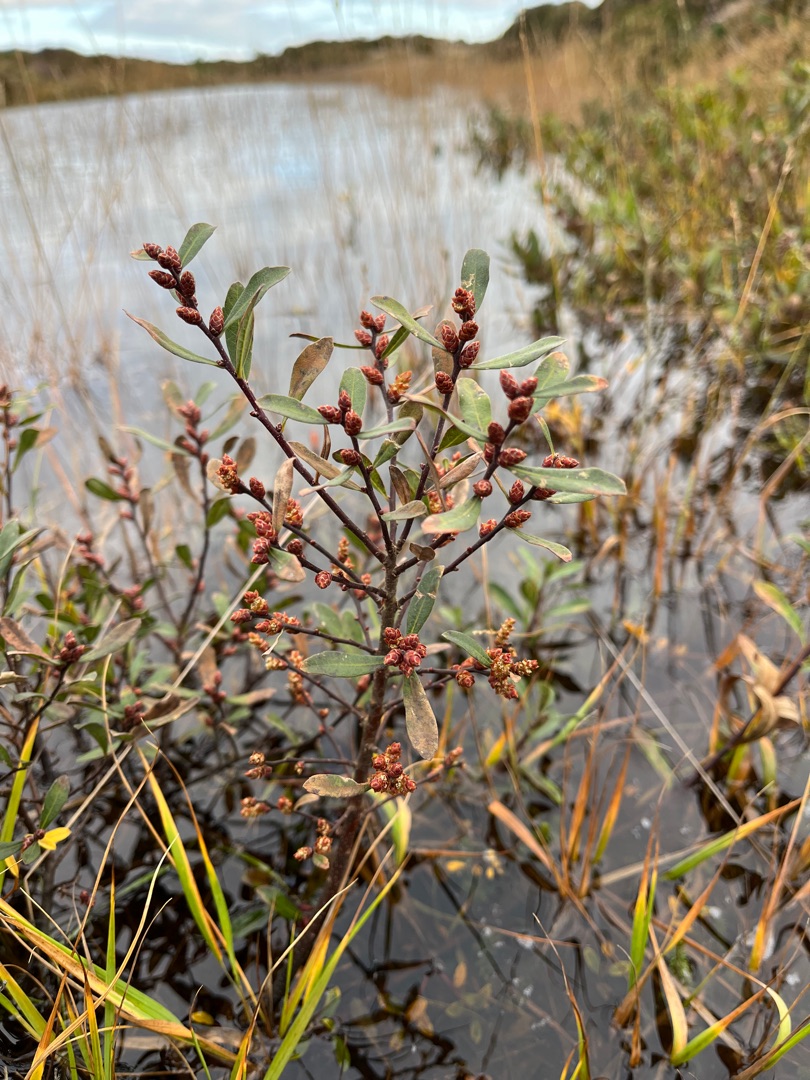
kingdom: Plantae
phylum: Tracheophyta
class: Magnoliopsida
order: Fagales
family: Myricaceae
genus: Myrica
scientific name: Myrica gale
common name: Pors
